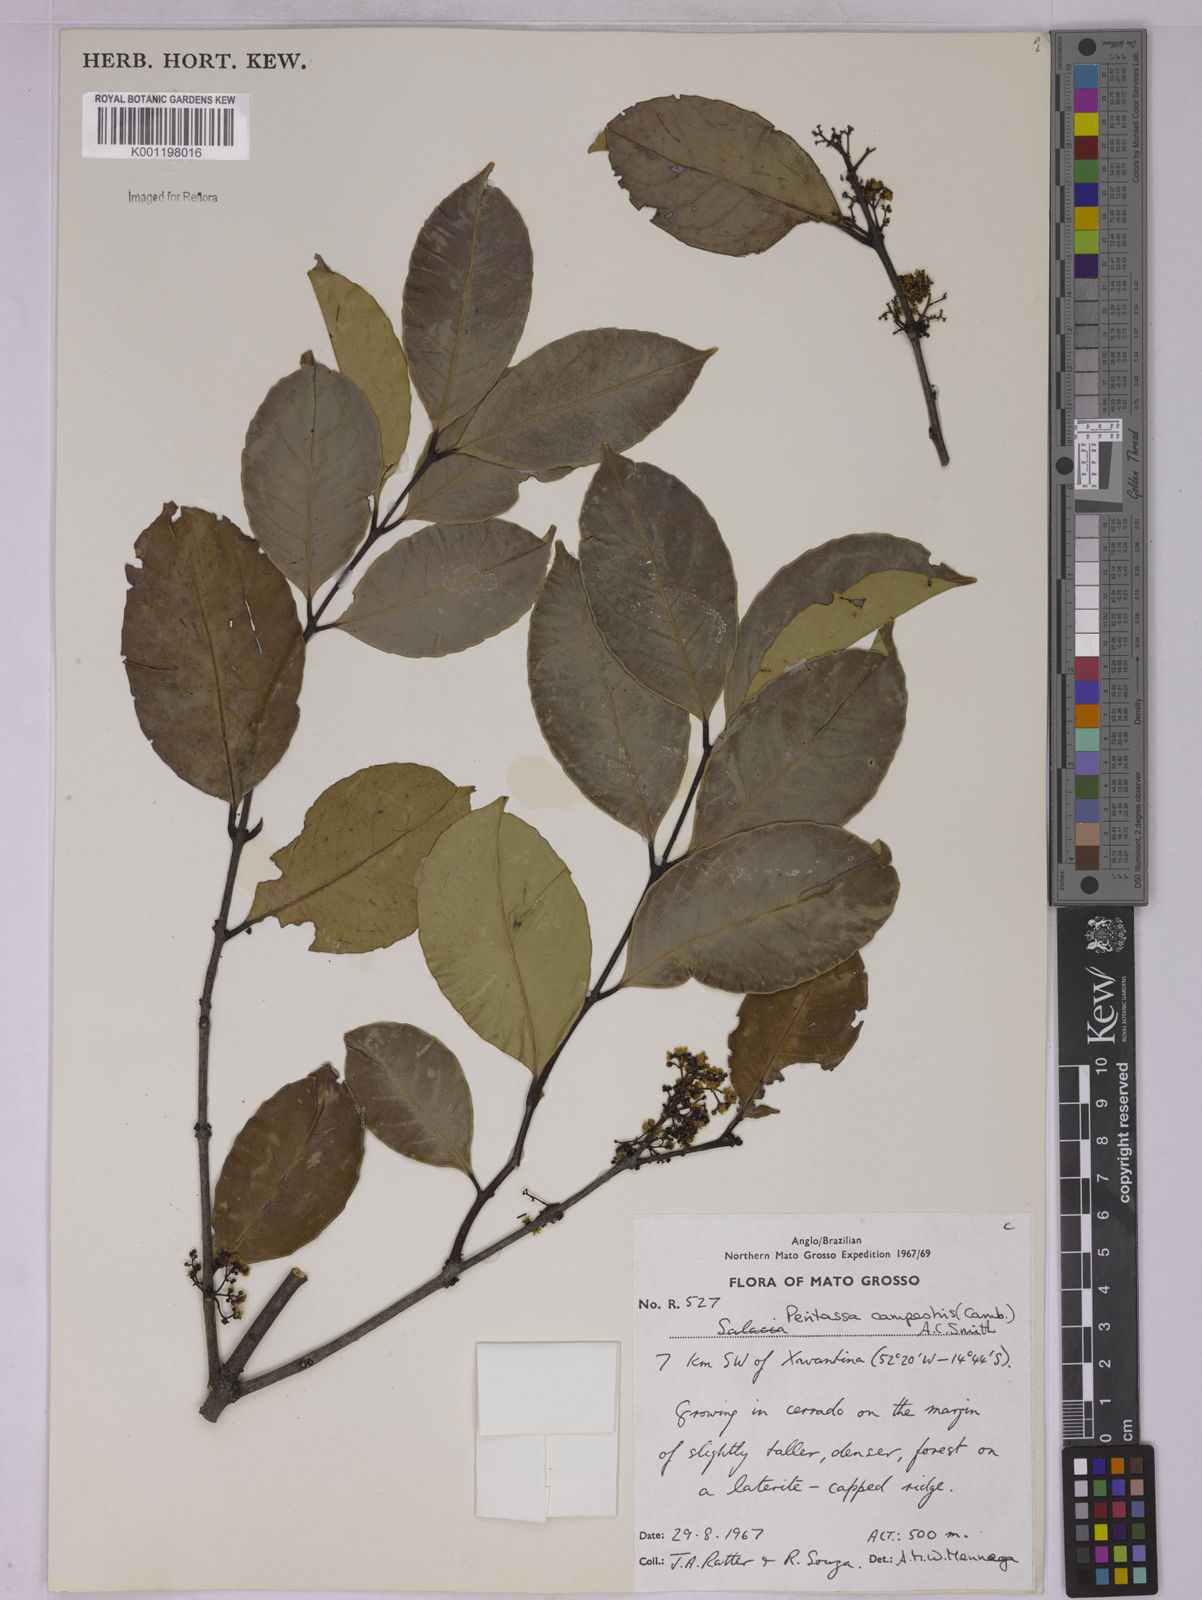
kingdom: Plantae
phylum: Tracheophyta
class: Magnoliopsida
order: Celastrales
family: Celastraceae
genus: Peritassa
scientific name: Peritassa campestris
